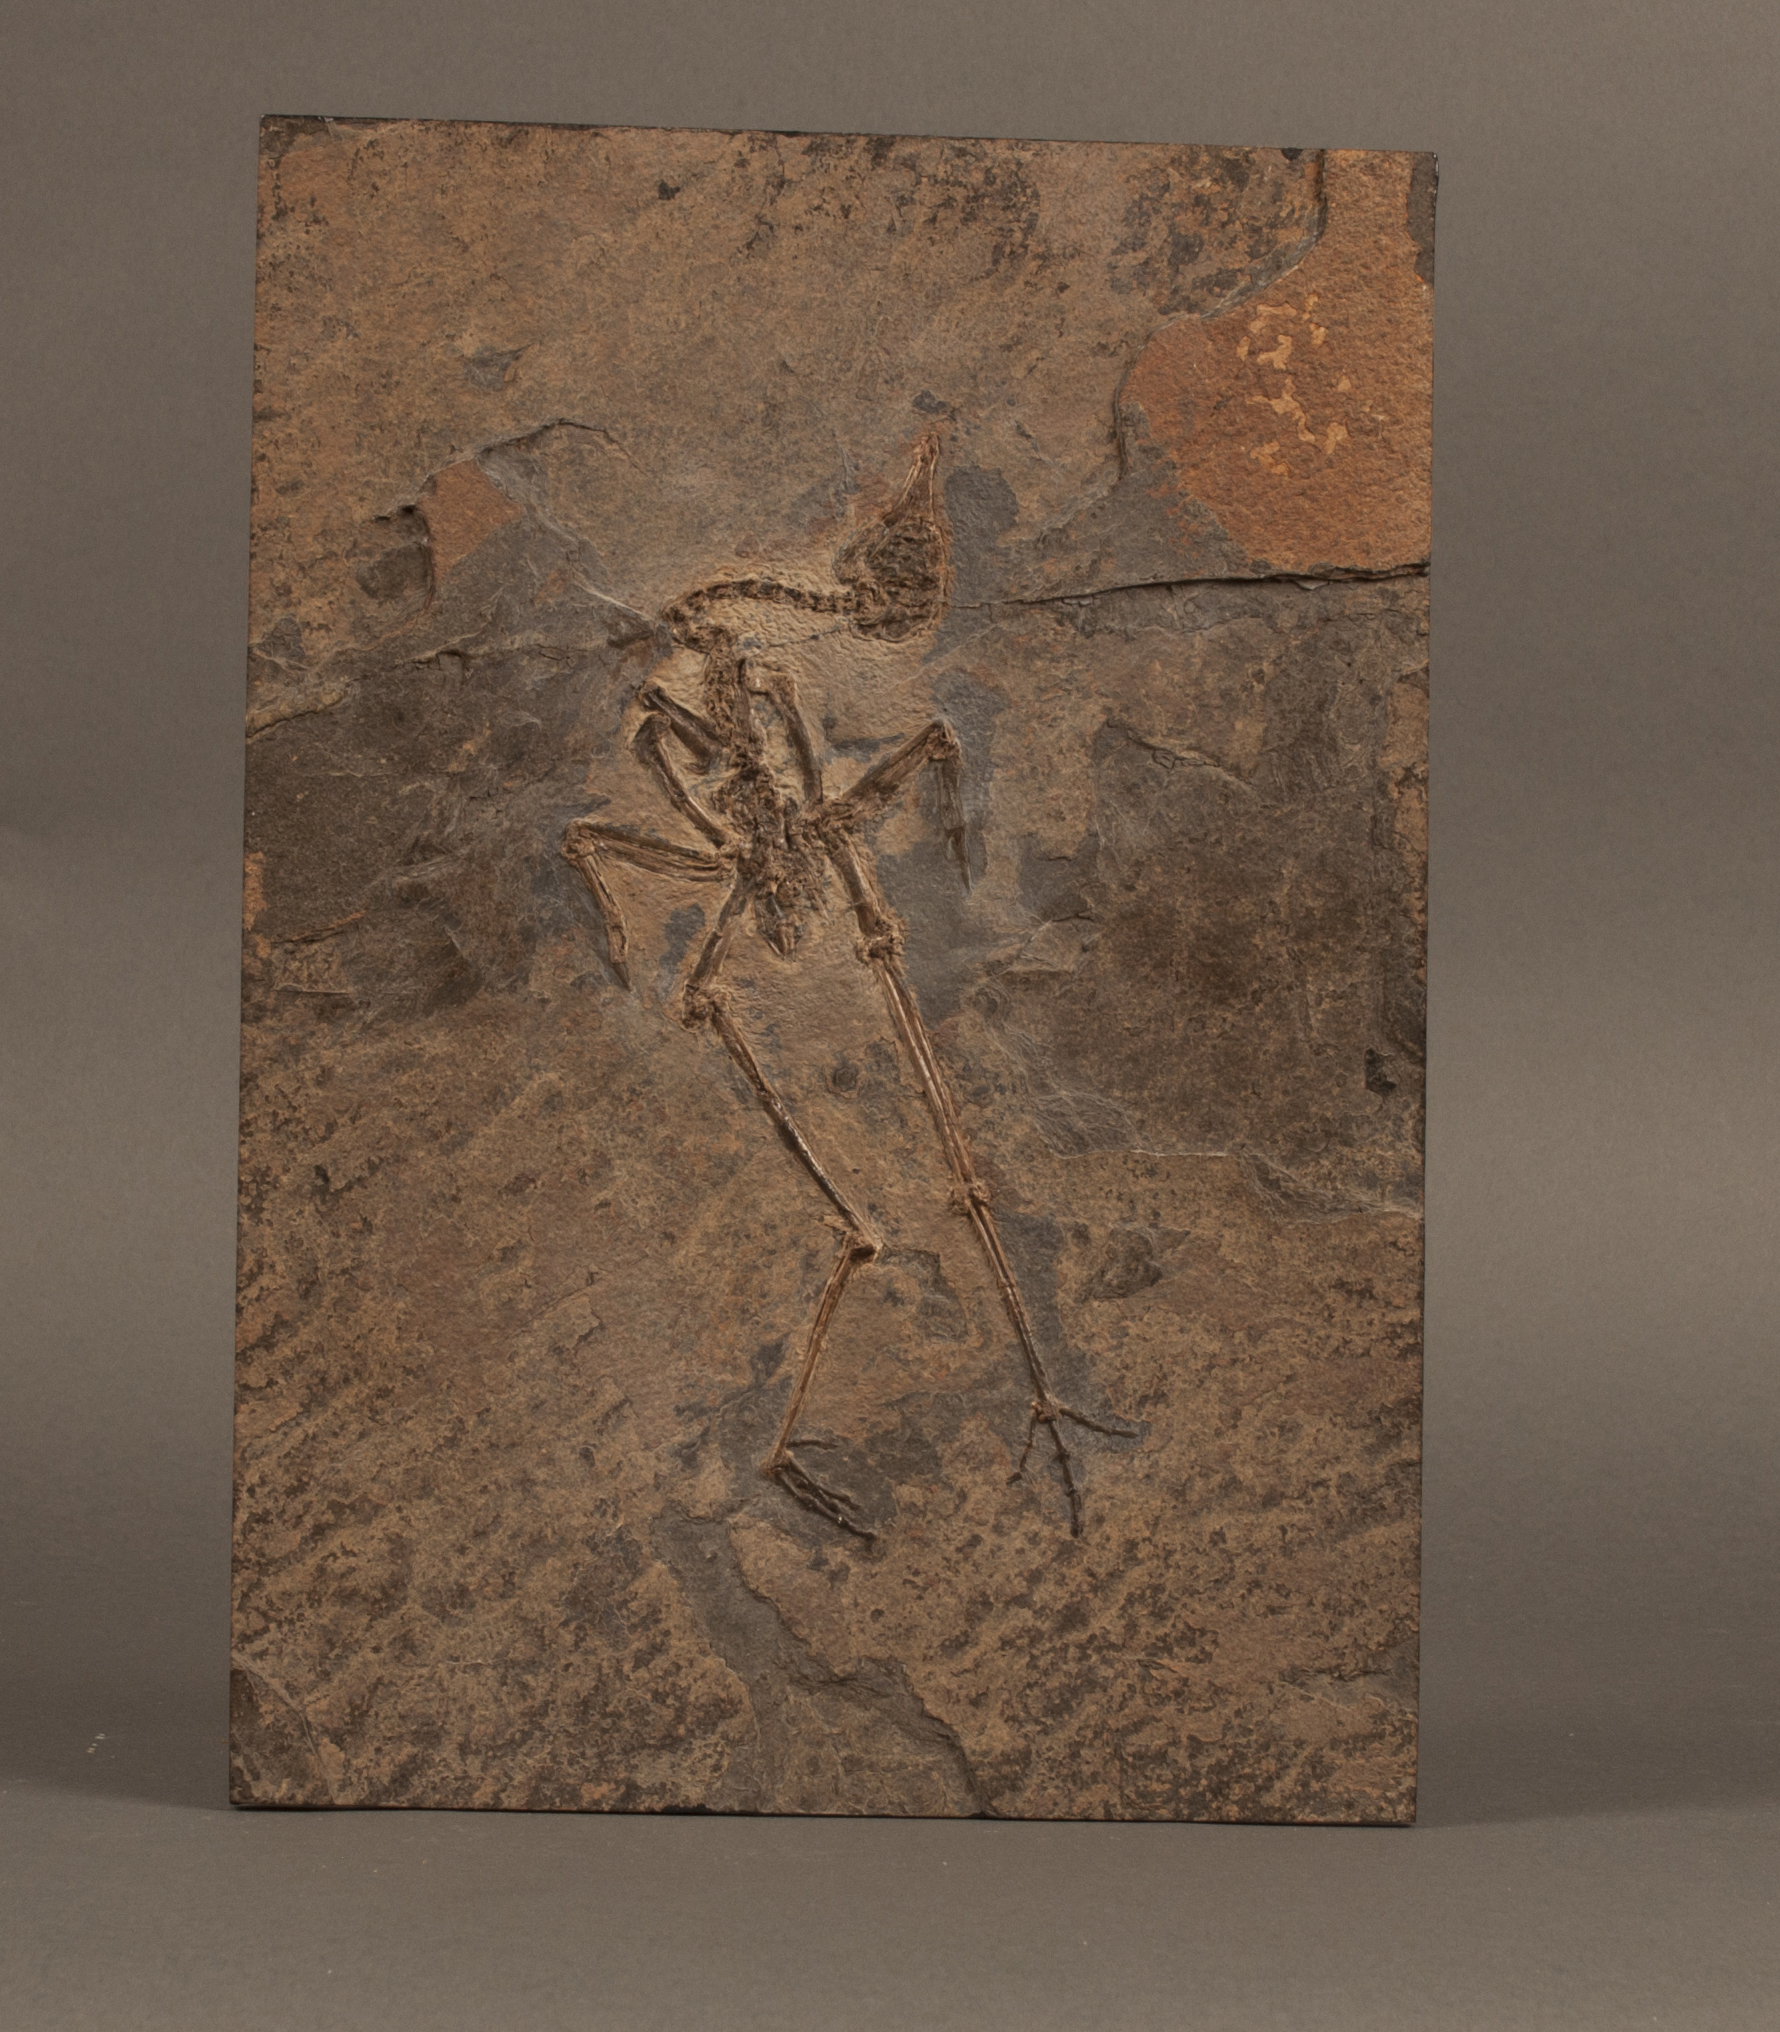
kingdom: Animalia
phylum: Chordata
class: Aves
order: Gruiformes
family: Messelornithidae
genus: Messelornis
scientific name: Messelornis cristata
